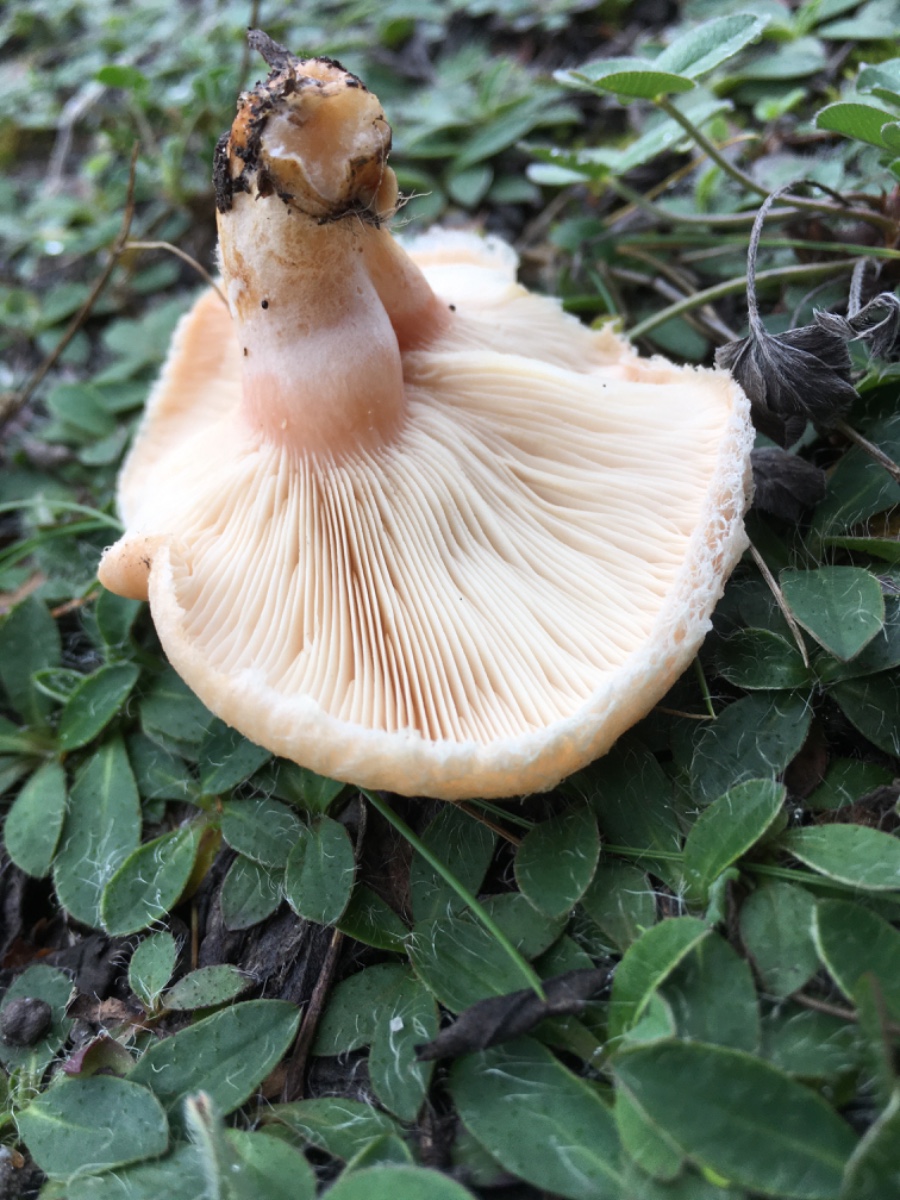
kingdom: Fungi
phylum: Basidiomycota
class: Agaricomycetes
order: Russulales
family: Russulaceae
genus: Lactarius
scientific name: Lactarius pubescens
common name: dunet mælkehat
